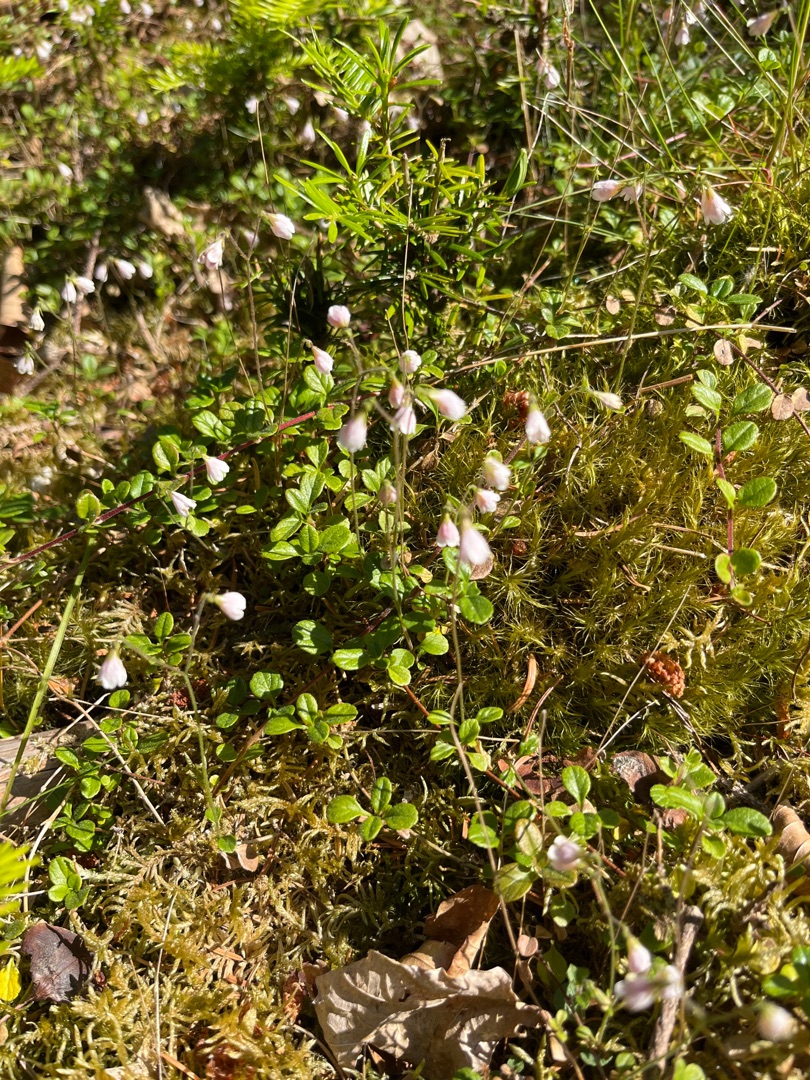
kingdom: Plantae
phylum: Tracheophyta
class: Magnoliopsida
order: Dipsacales
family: Caprifoliaceae
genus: Linnaea
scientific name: Linnaea borealis
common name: Linnæa
